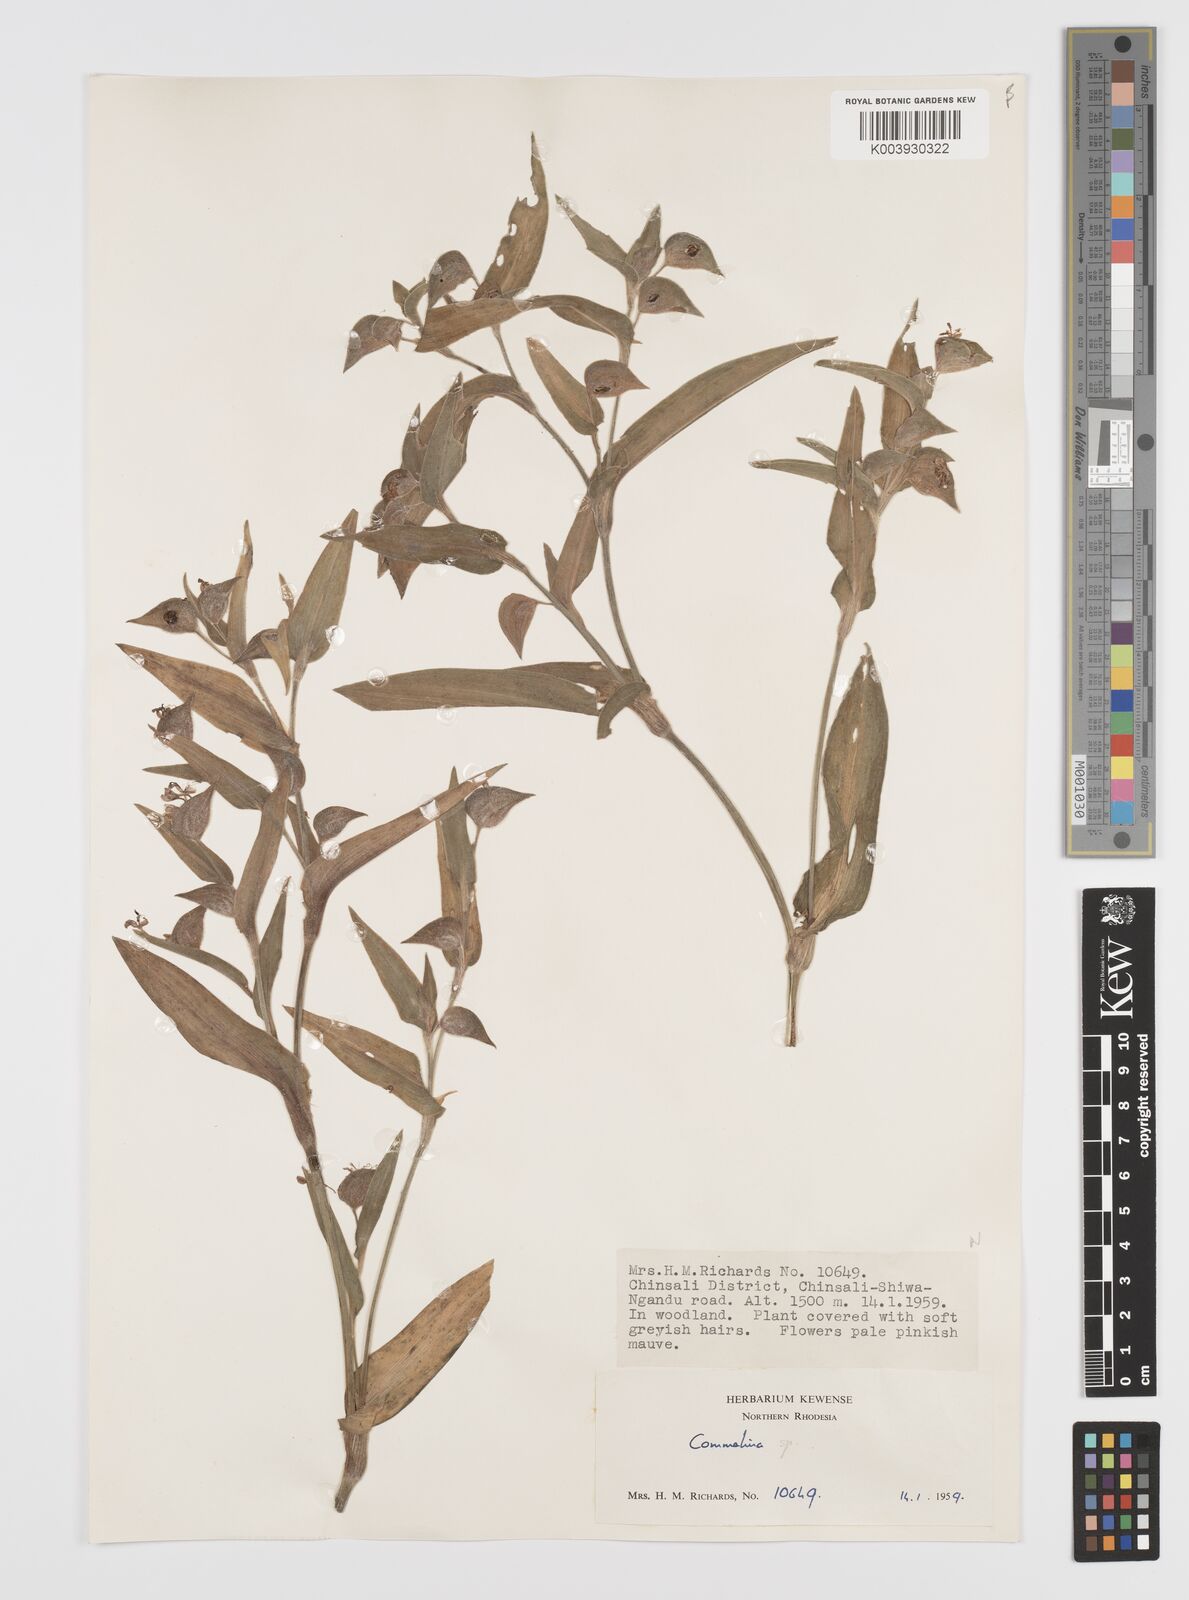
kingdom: Plantae
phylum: Tracheophyta
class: Liliopsida
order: Commelinales
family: Commelinaceae
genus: Commelina
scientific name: Commelina cecilae
